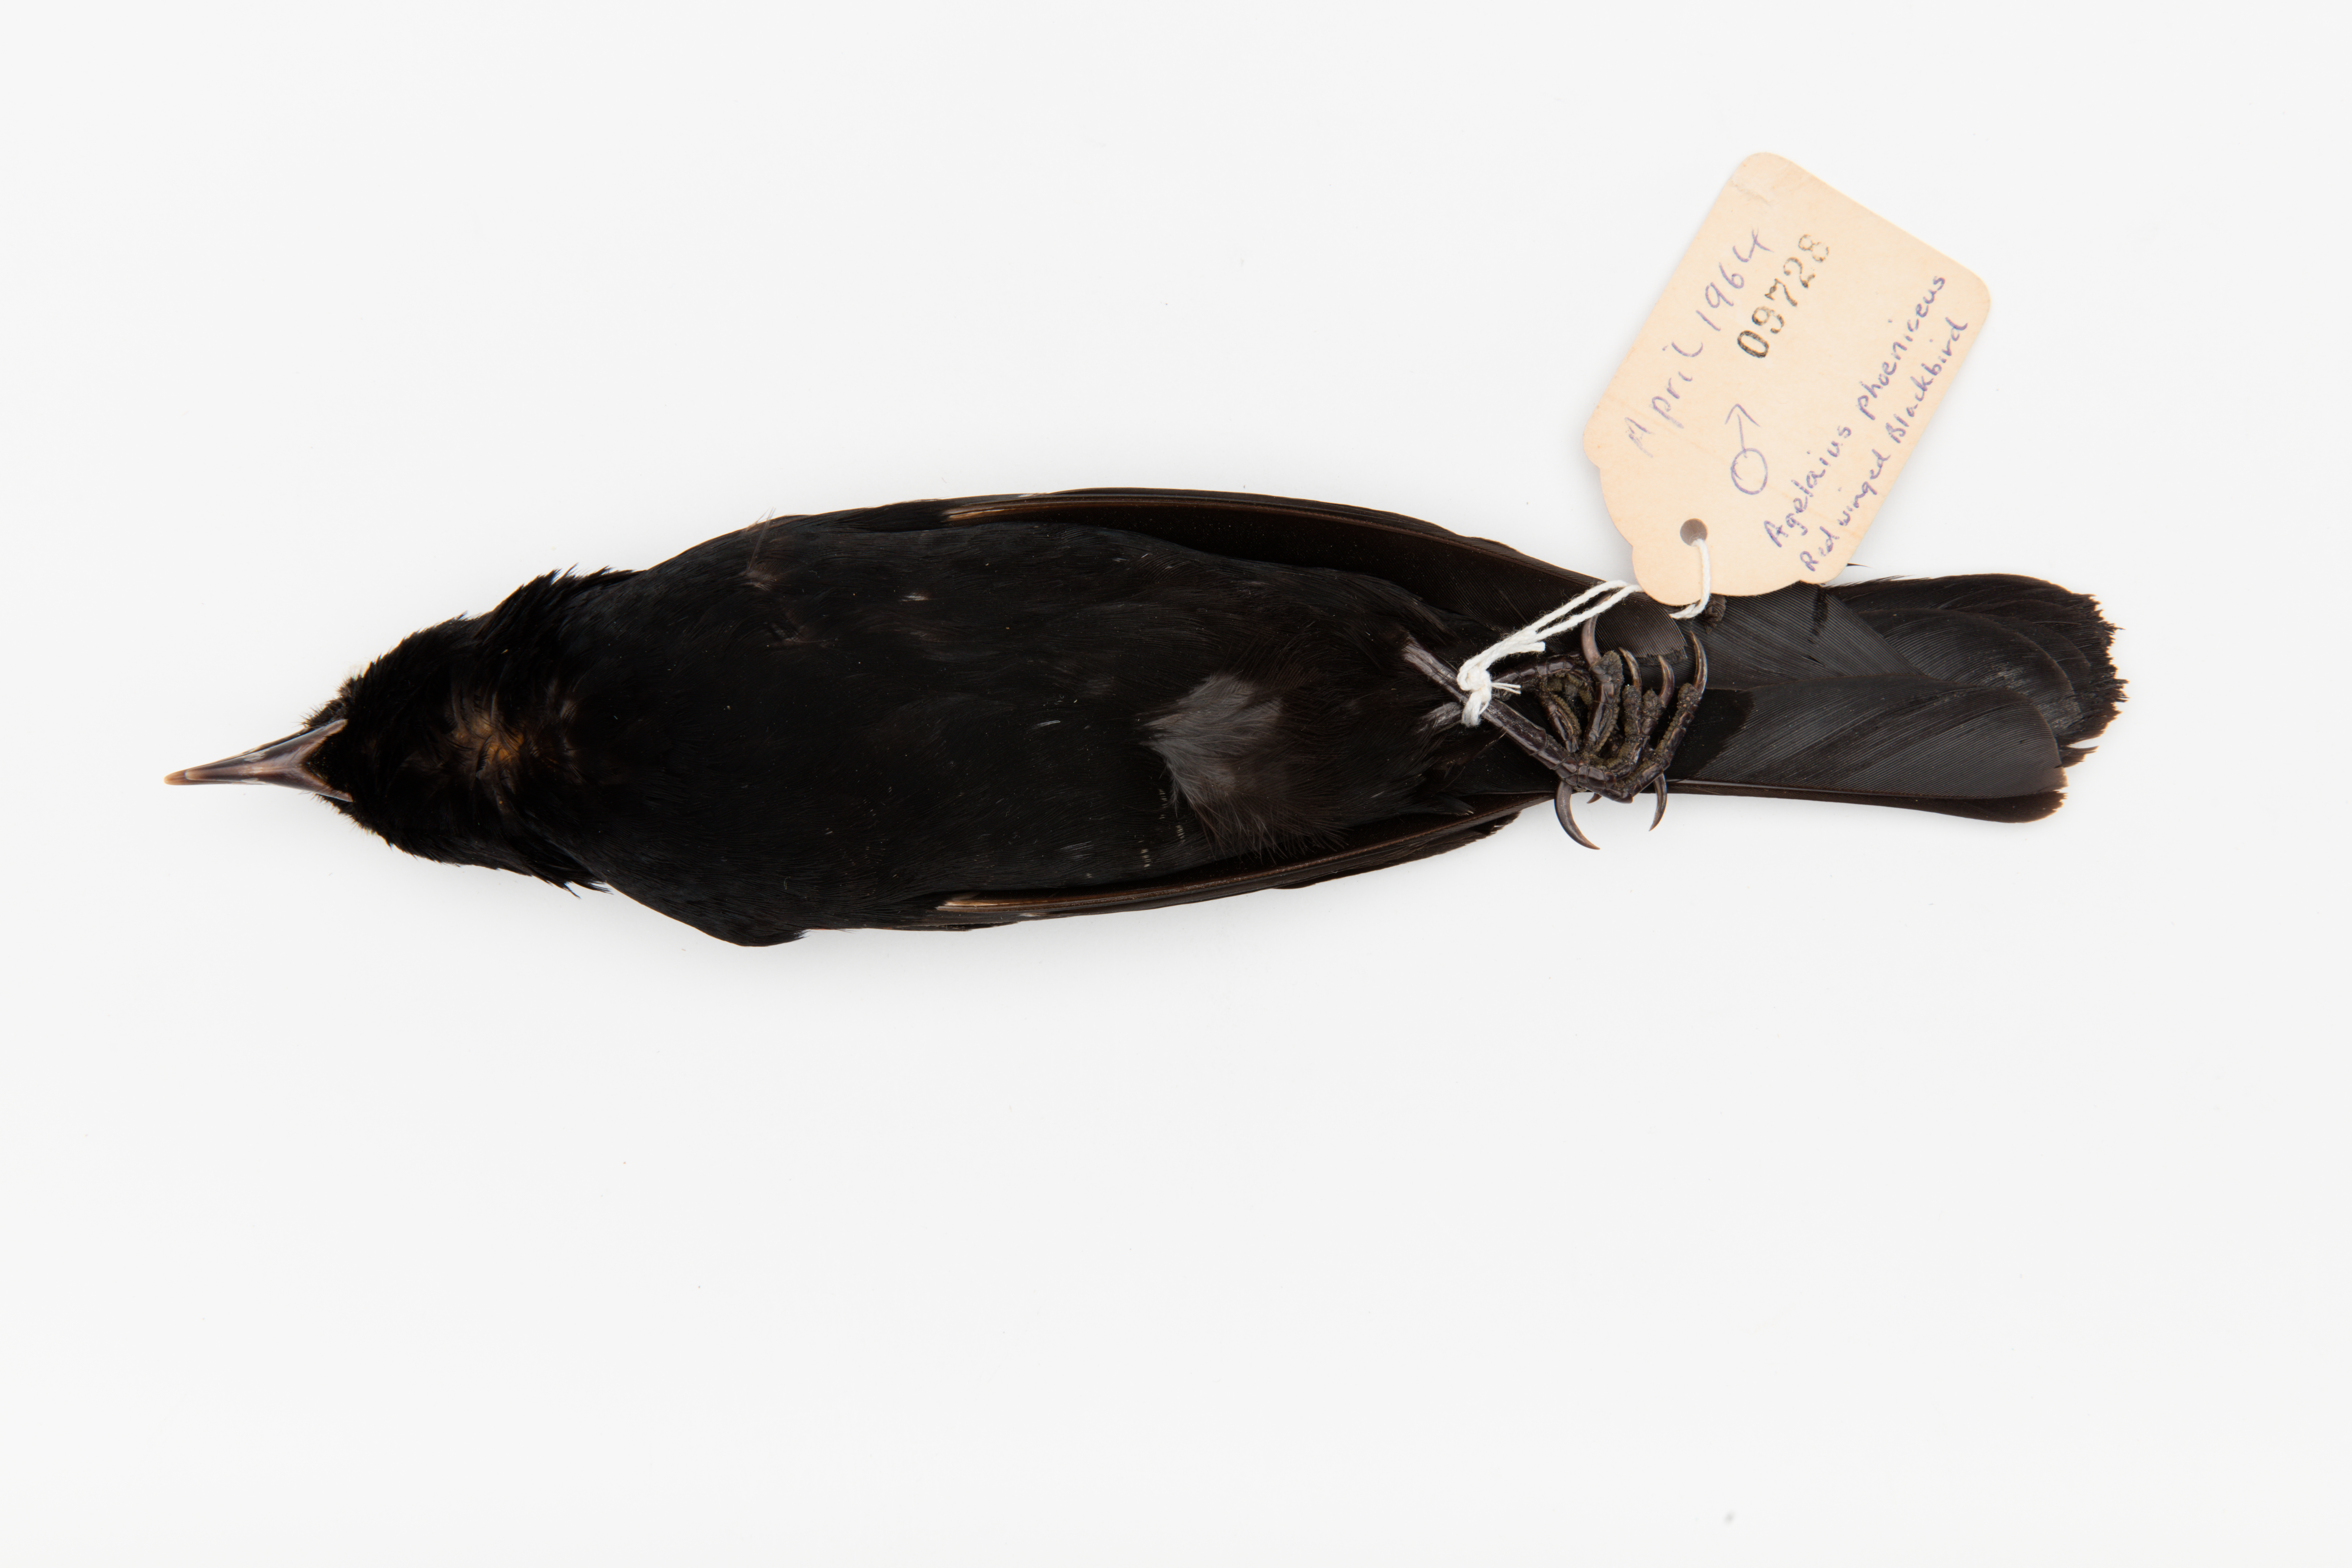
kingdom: Animalia
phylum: Chordata
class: Aves
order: Passeriformes
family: Icteridae
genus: Agelaius
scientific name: Agelaius phoeniceus
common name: Red-winged blackbird
